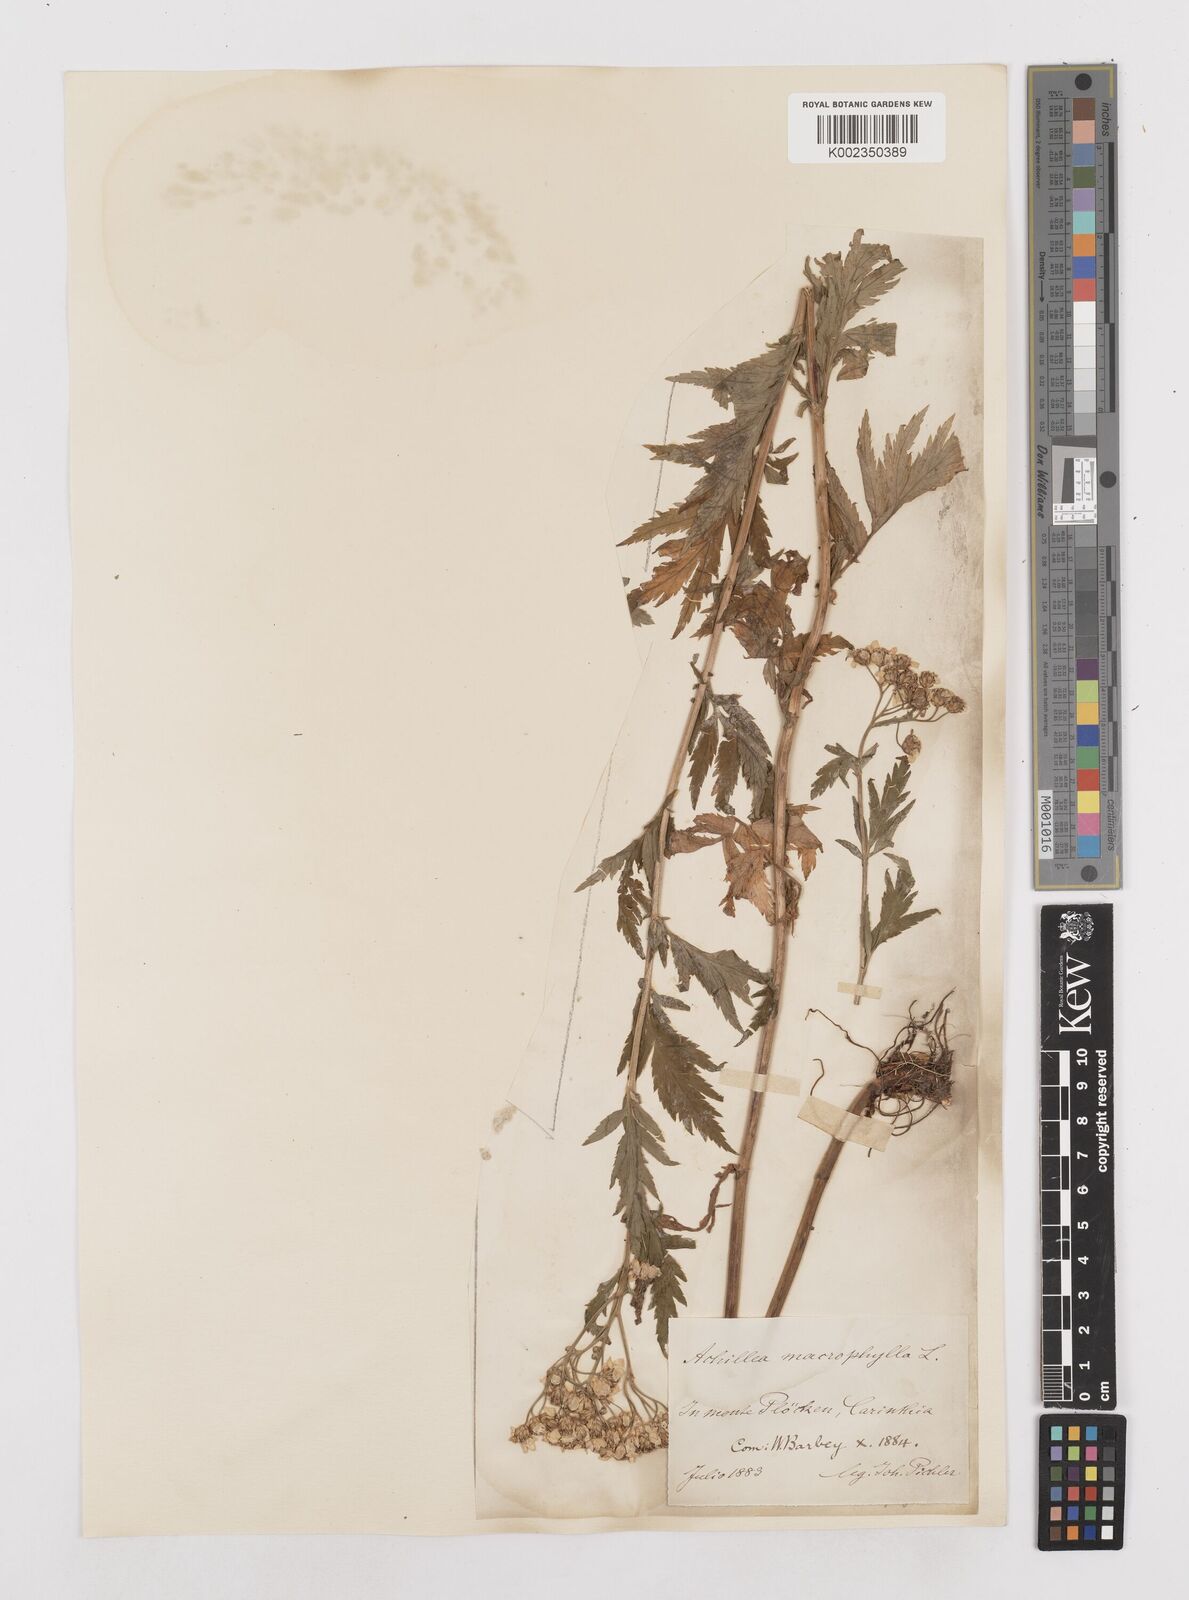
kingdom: Plantae
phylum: Tracheophyta
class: Magnoliopsida
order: Asterales
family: Asteraceae
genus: Achillea
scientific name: Achillea macrophylla
